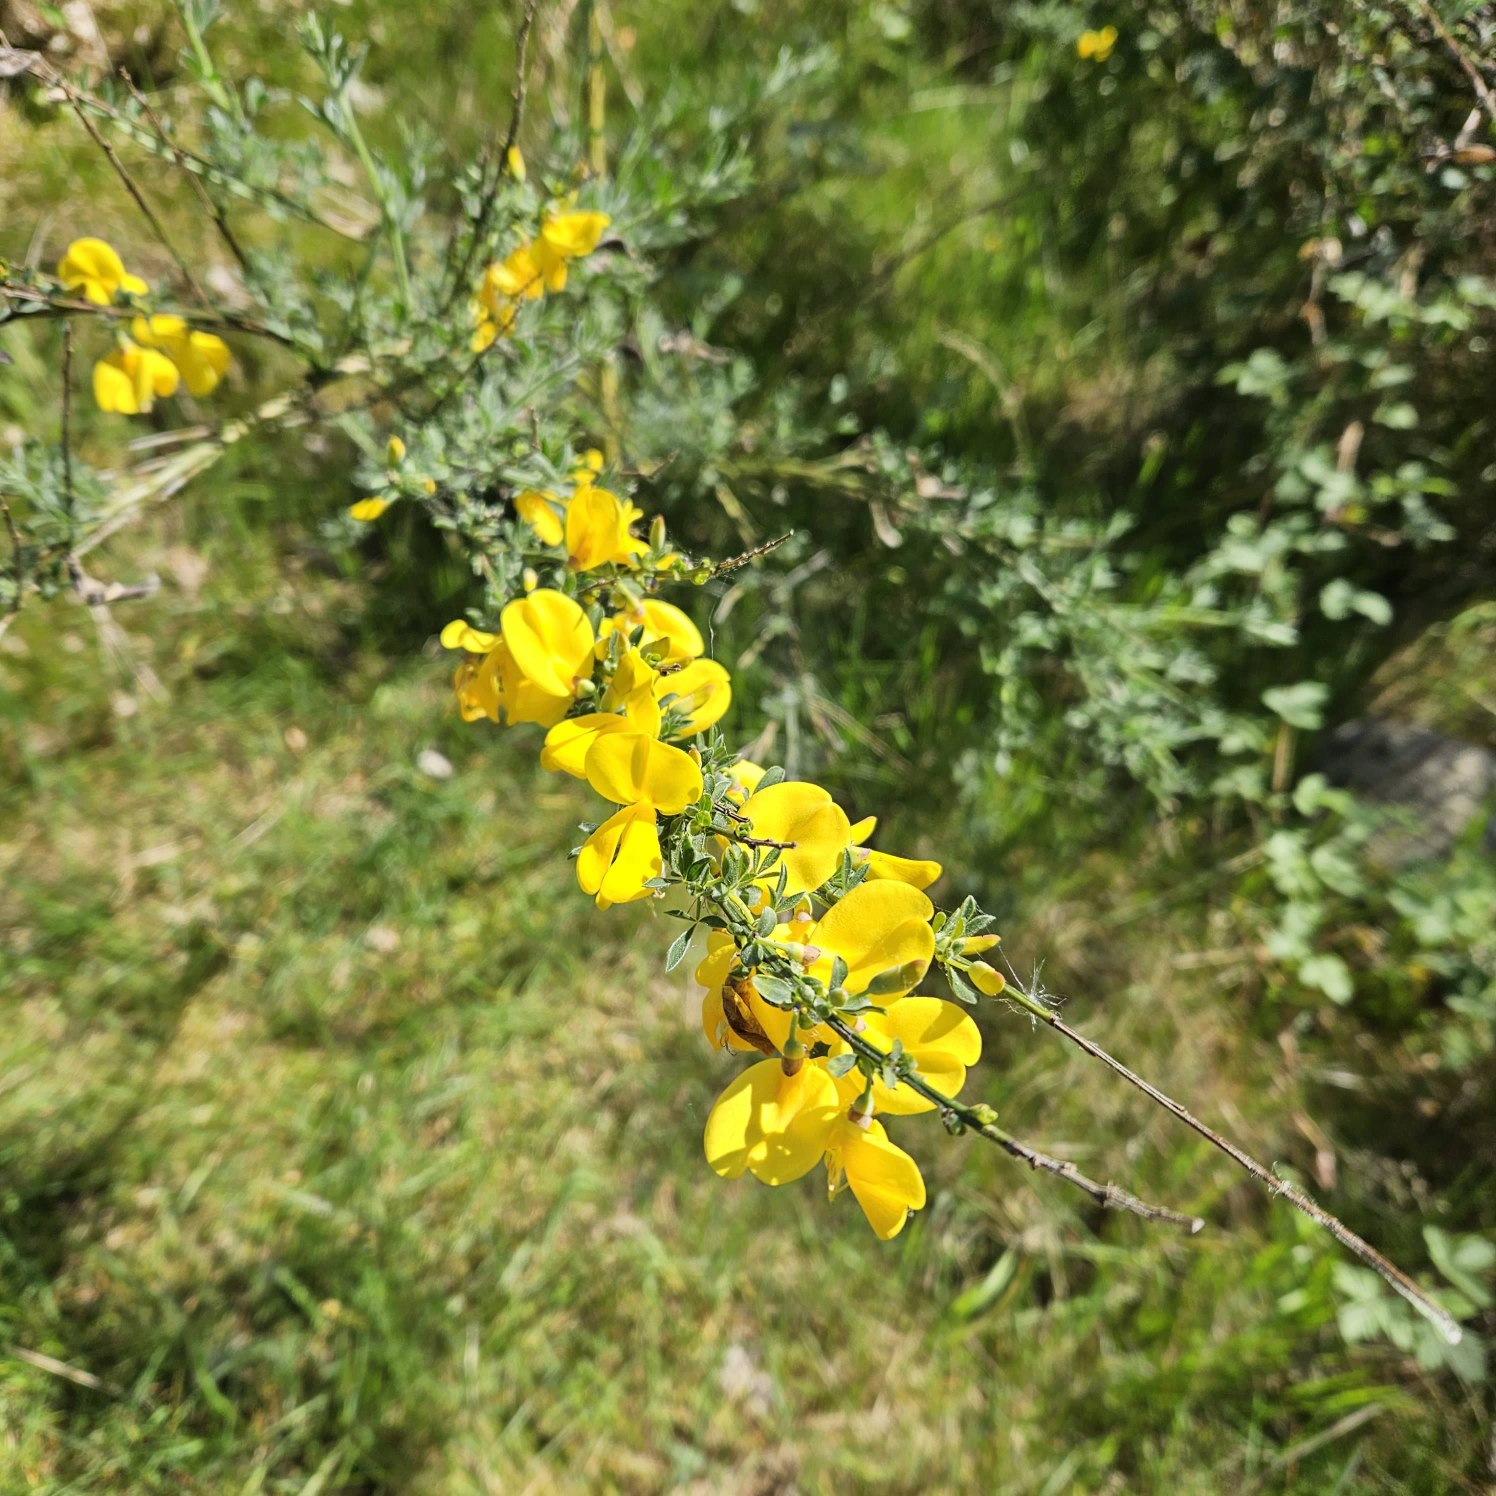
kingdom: Plantae
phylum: Tracheophyta
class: Magnoliopsida
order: Fabales
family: Fabaceae
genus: Cytisus
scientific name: Cytisus scoparius
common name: Almindelig gyvel
